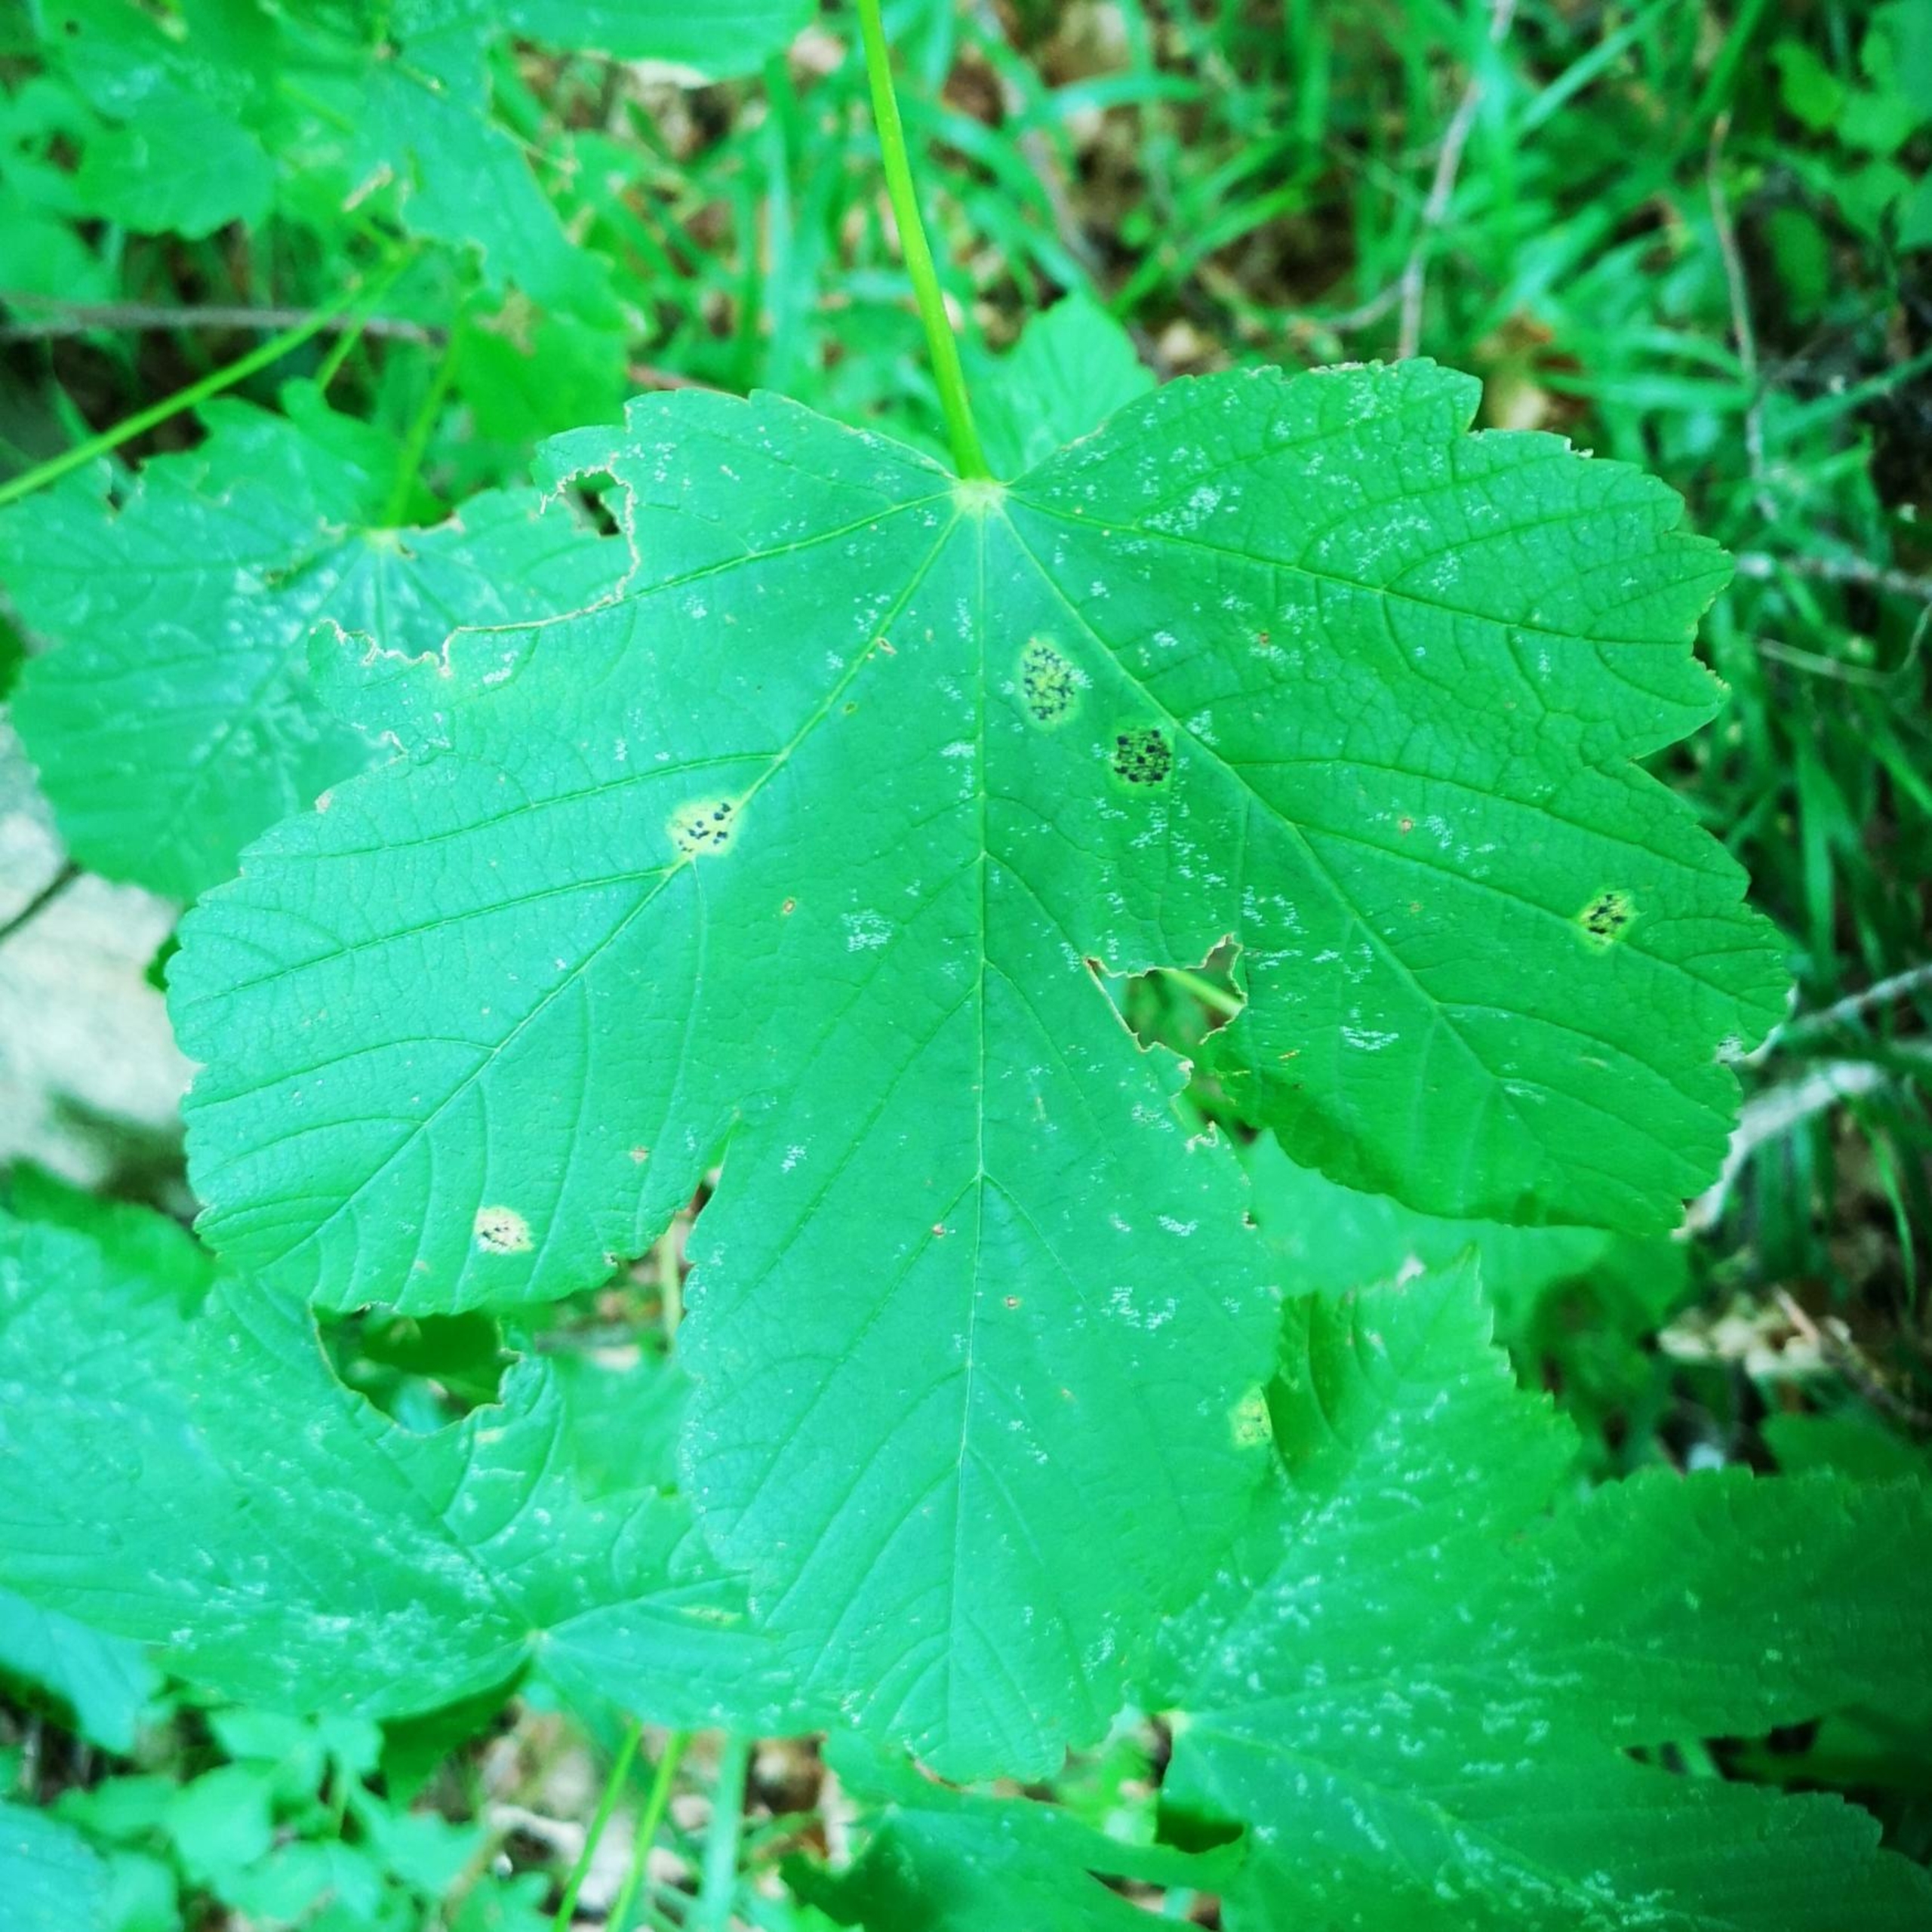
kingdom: Fungi
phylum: Ascomycota
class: Leotiomycetes
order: Rhytismatales
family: Rhytismataceae
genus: Rhytisma
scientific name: Rhytisma acerinum
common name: Ahorn-rynkeplet
